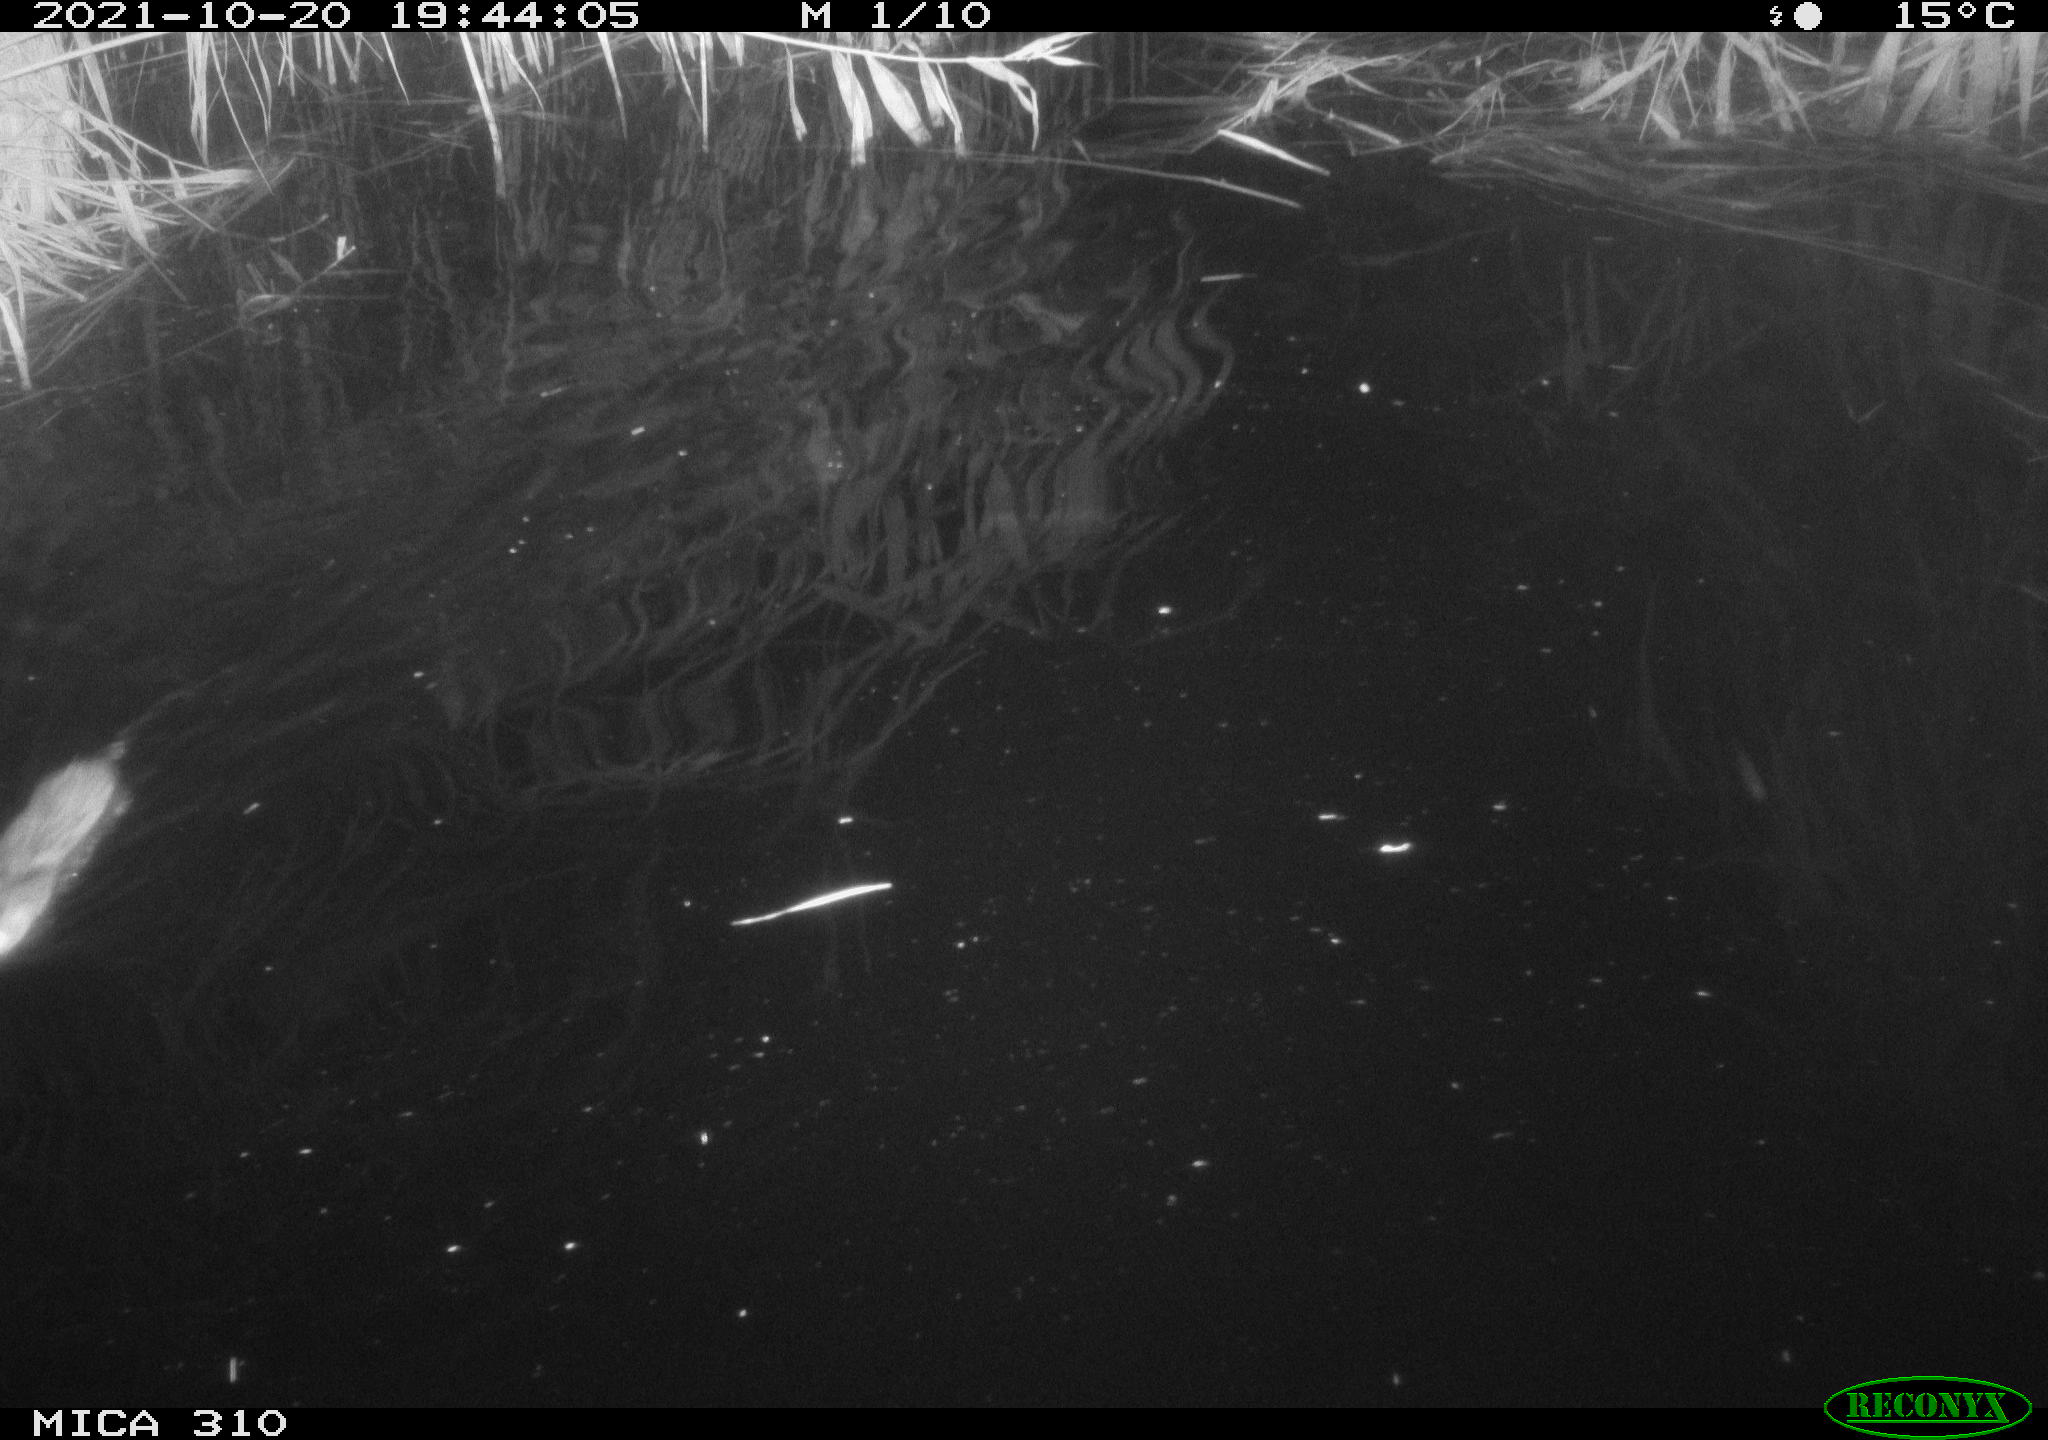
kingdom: Animalia
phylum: Chordata
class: Mammalia
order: Rodentia
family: Muridae
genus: Rattus
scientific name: Rattus norvegicus
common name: Brown rat
